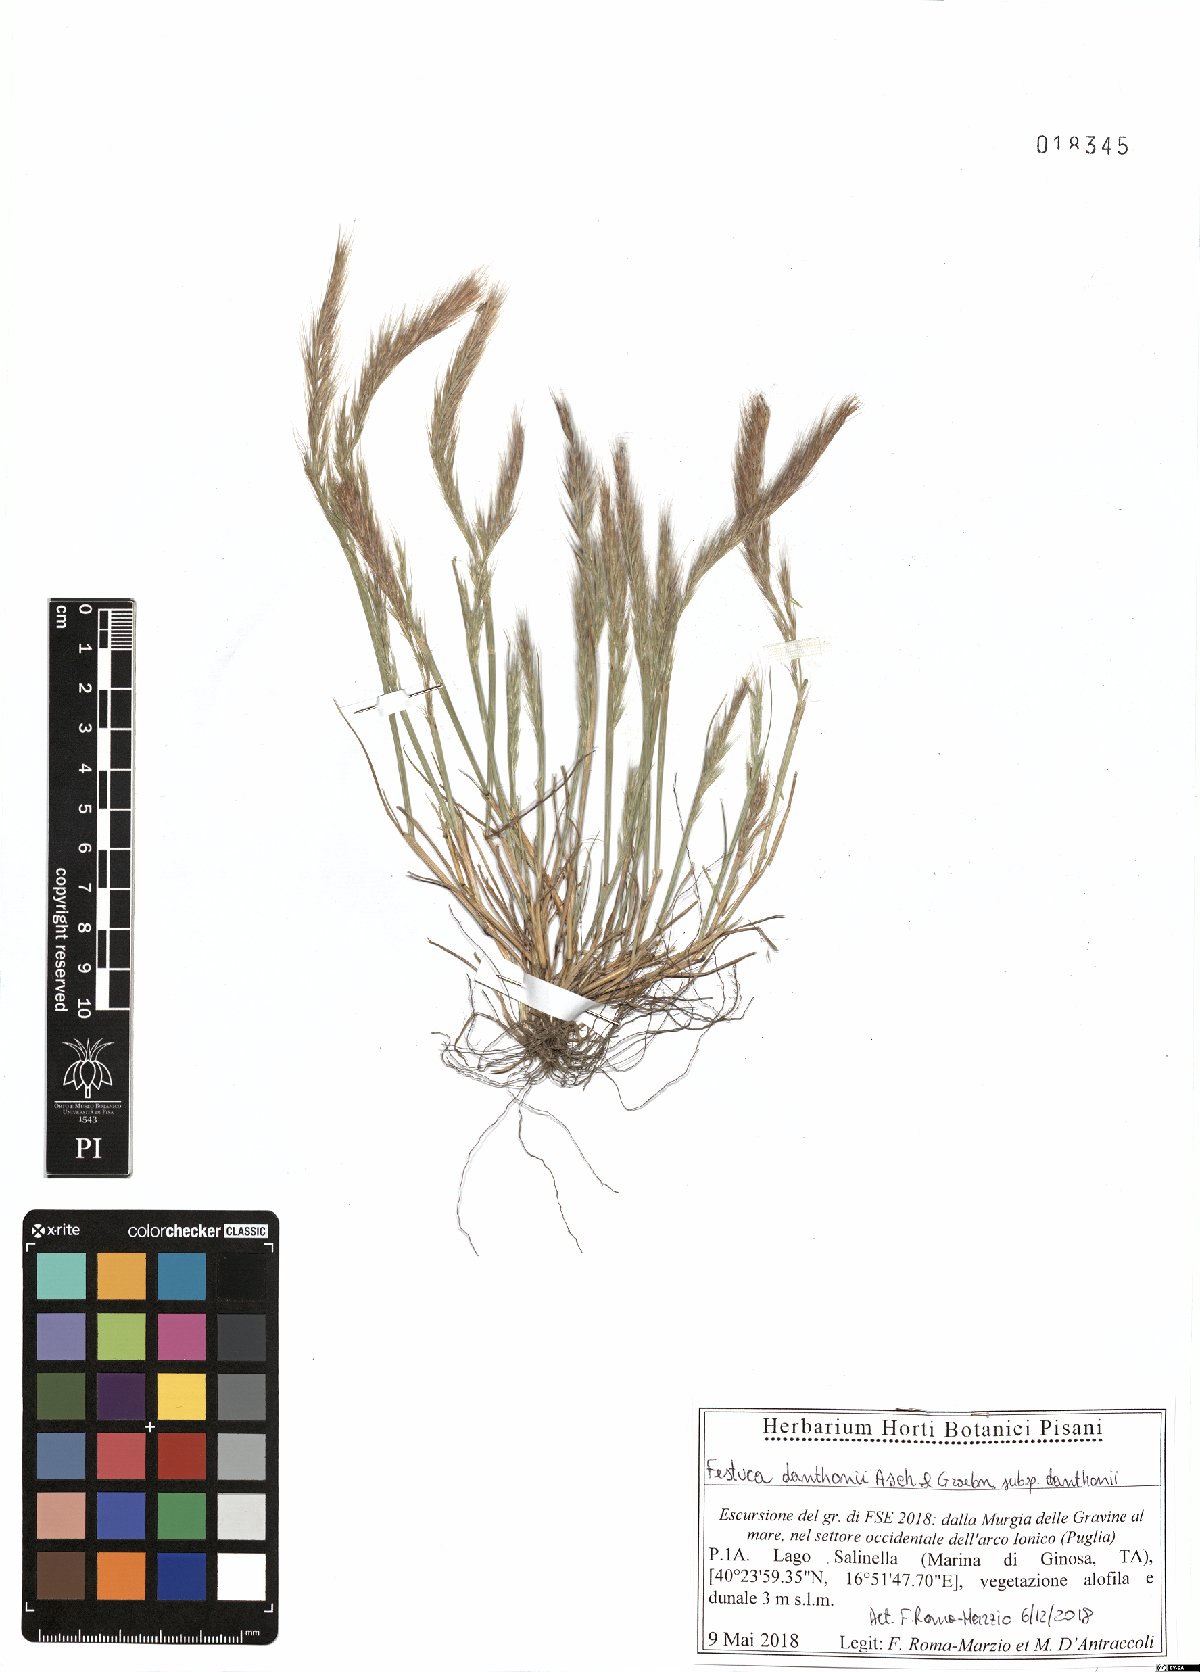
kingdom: Plantae
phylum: Tracheophyta
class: Liliopsida
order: Poales
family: Poaceae
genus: Festuca
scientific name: Festuca ambigua
